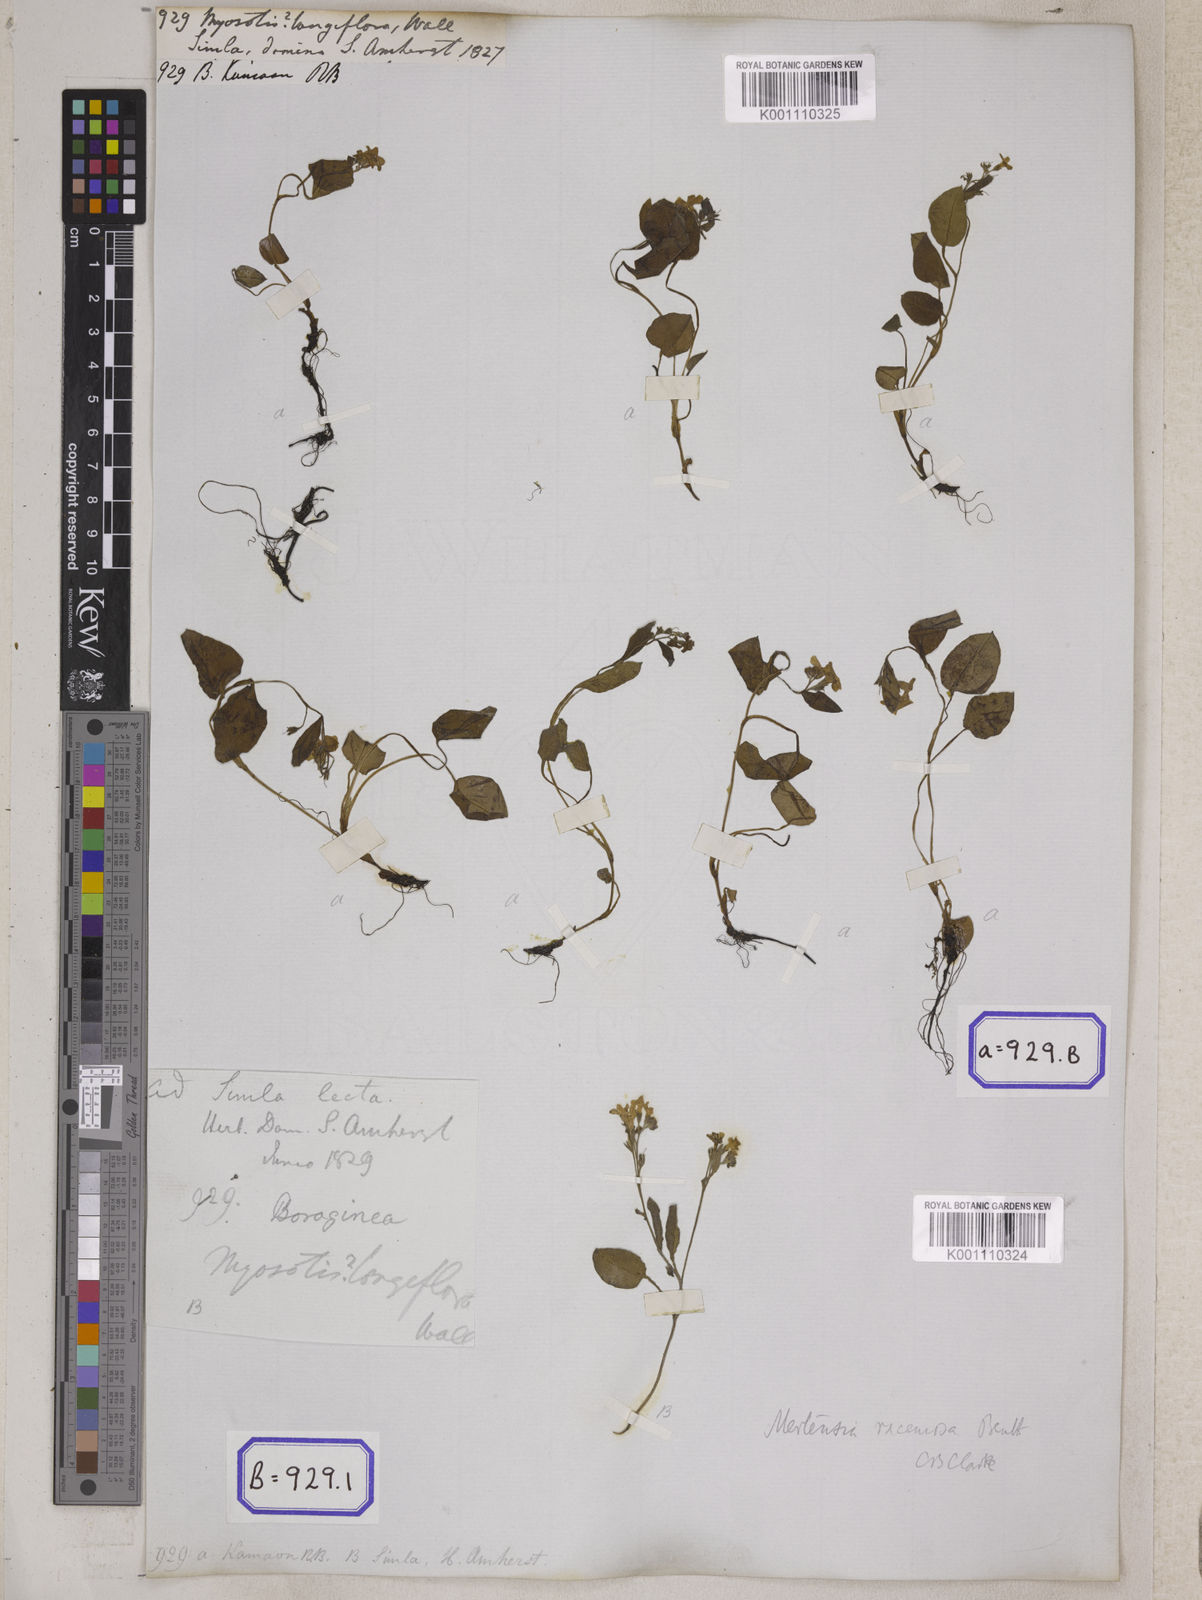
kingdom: Plantae
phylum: Tracheophyta
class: Magnoliopsida
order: Boraginales
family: Boraginaceae
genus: Myosotis
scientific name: Myosotis
